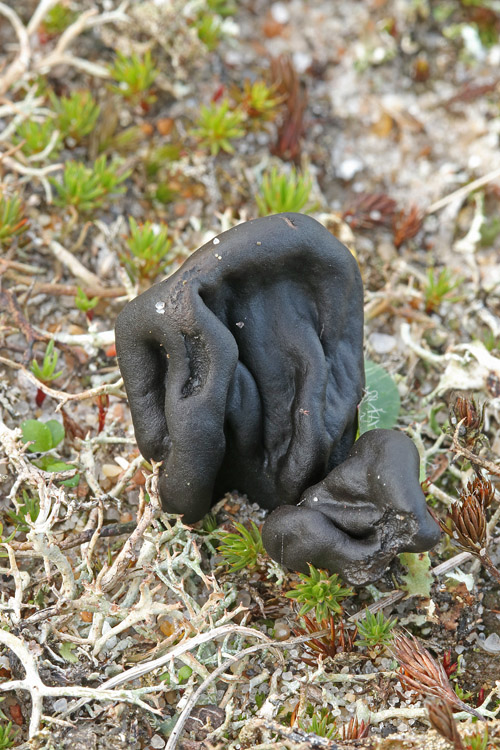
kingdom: Fungi
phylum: Ascomycota
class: Geoglossomycetes
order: Geoglossales
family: Geoglossaceae
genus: Sabuloglossum
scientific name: Sabuloglossum arenarium
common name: klit-jordtunge
